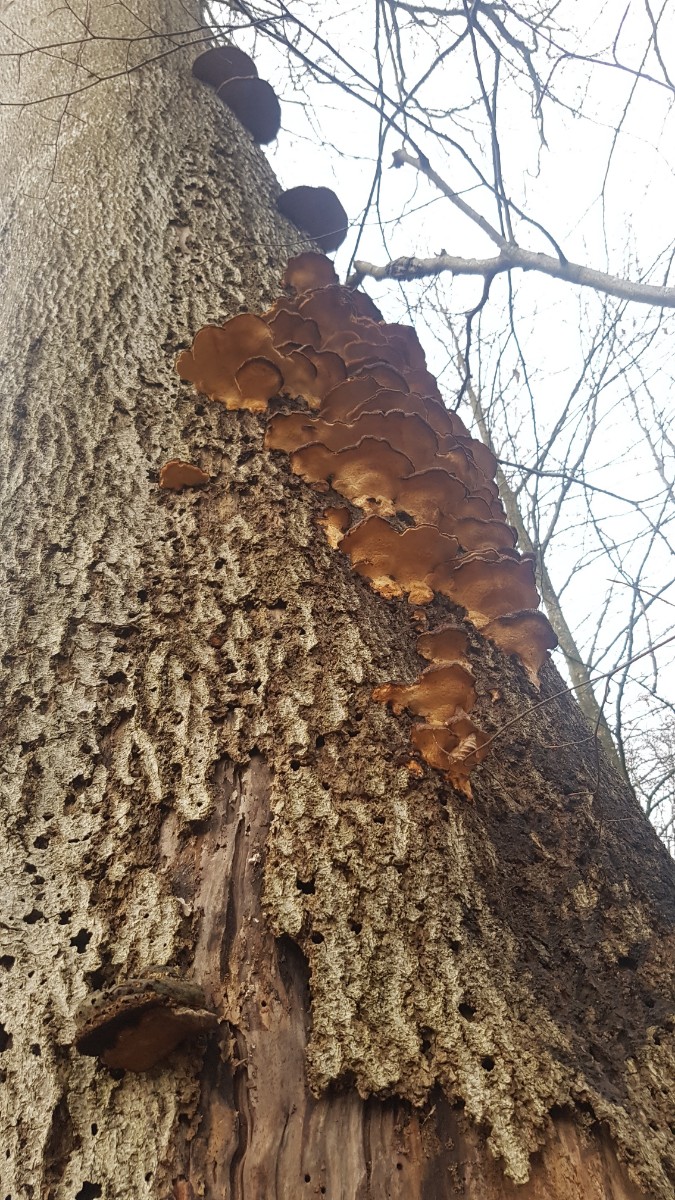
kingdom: Fungi
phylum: Basidiomycota
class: Agaricomycetes
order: Polyporales
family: Ischnodermataceae
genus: Ischnoderma
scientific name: Ischnoderma resinosum
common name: løv-tjæreporesvamp
